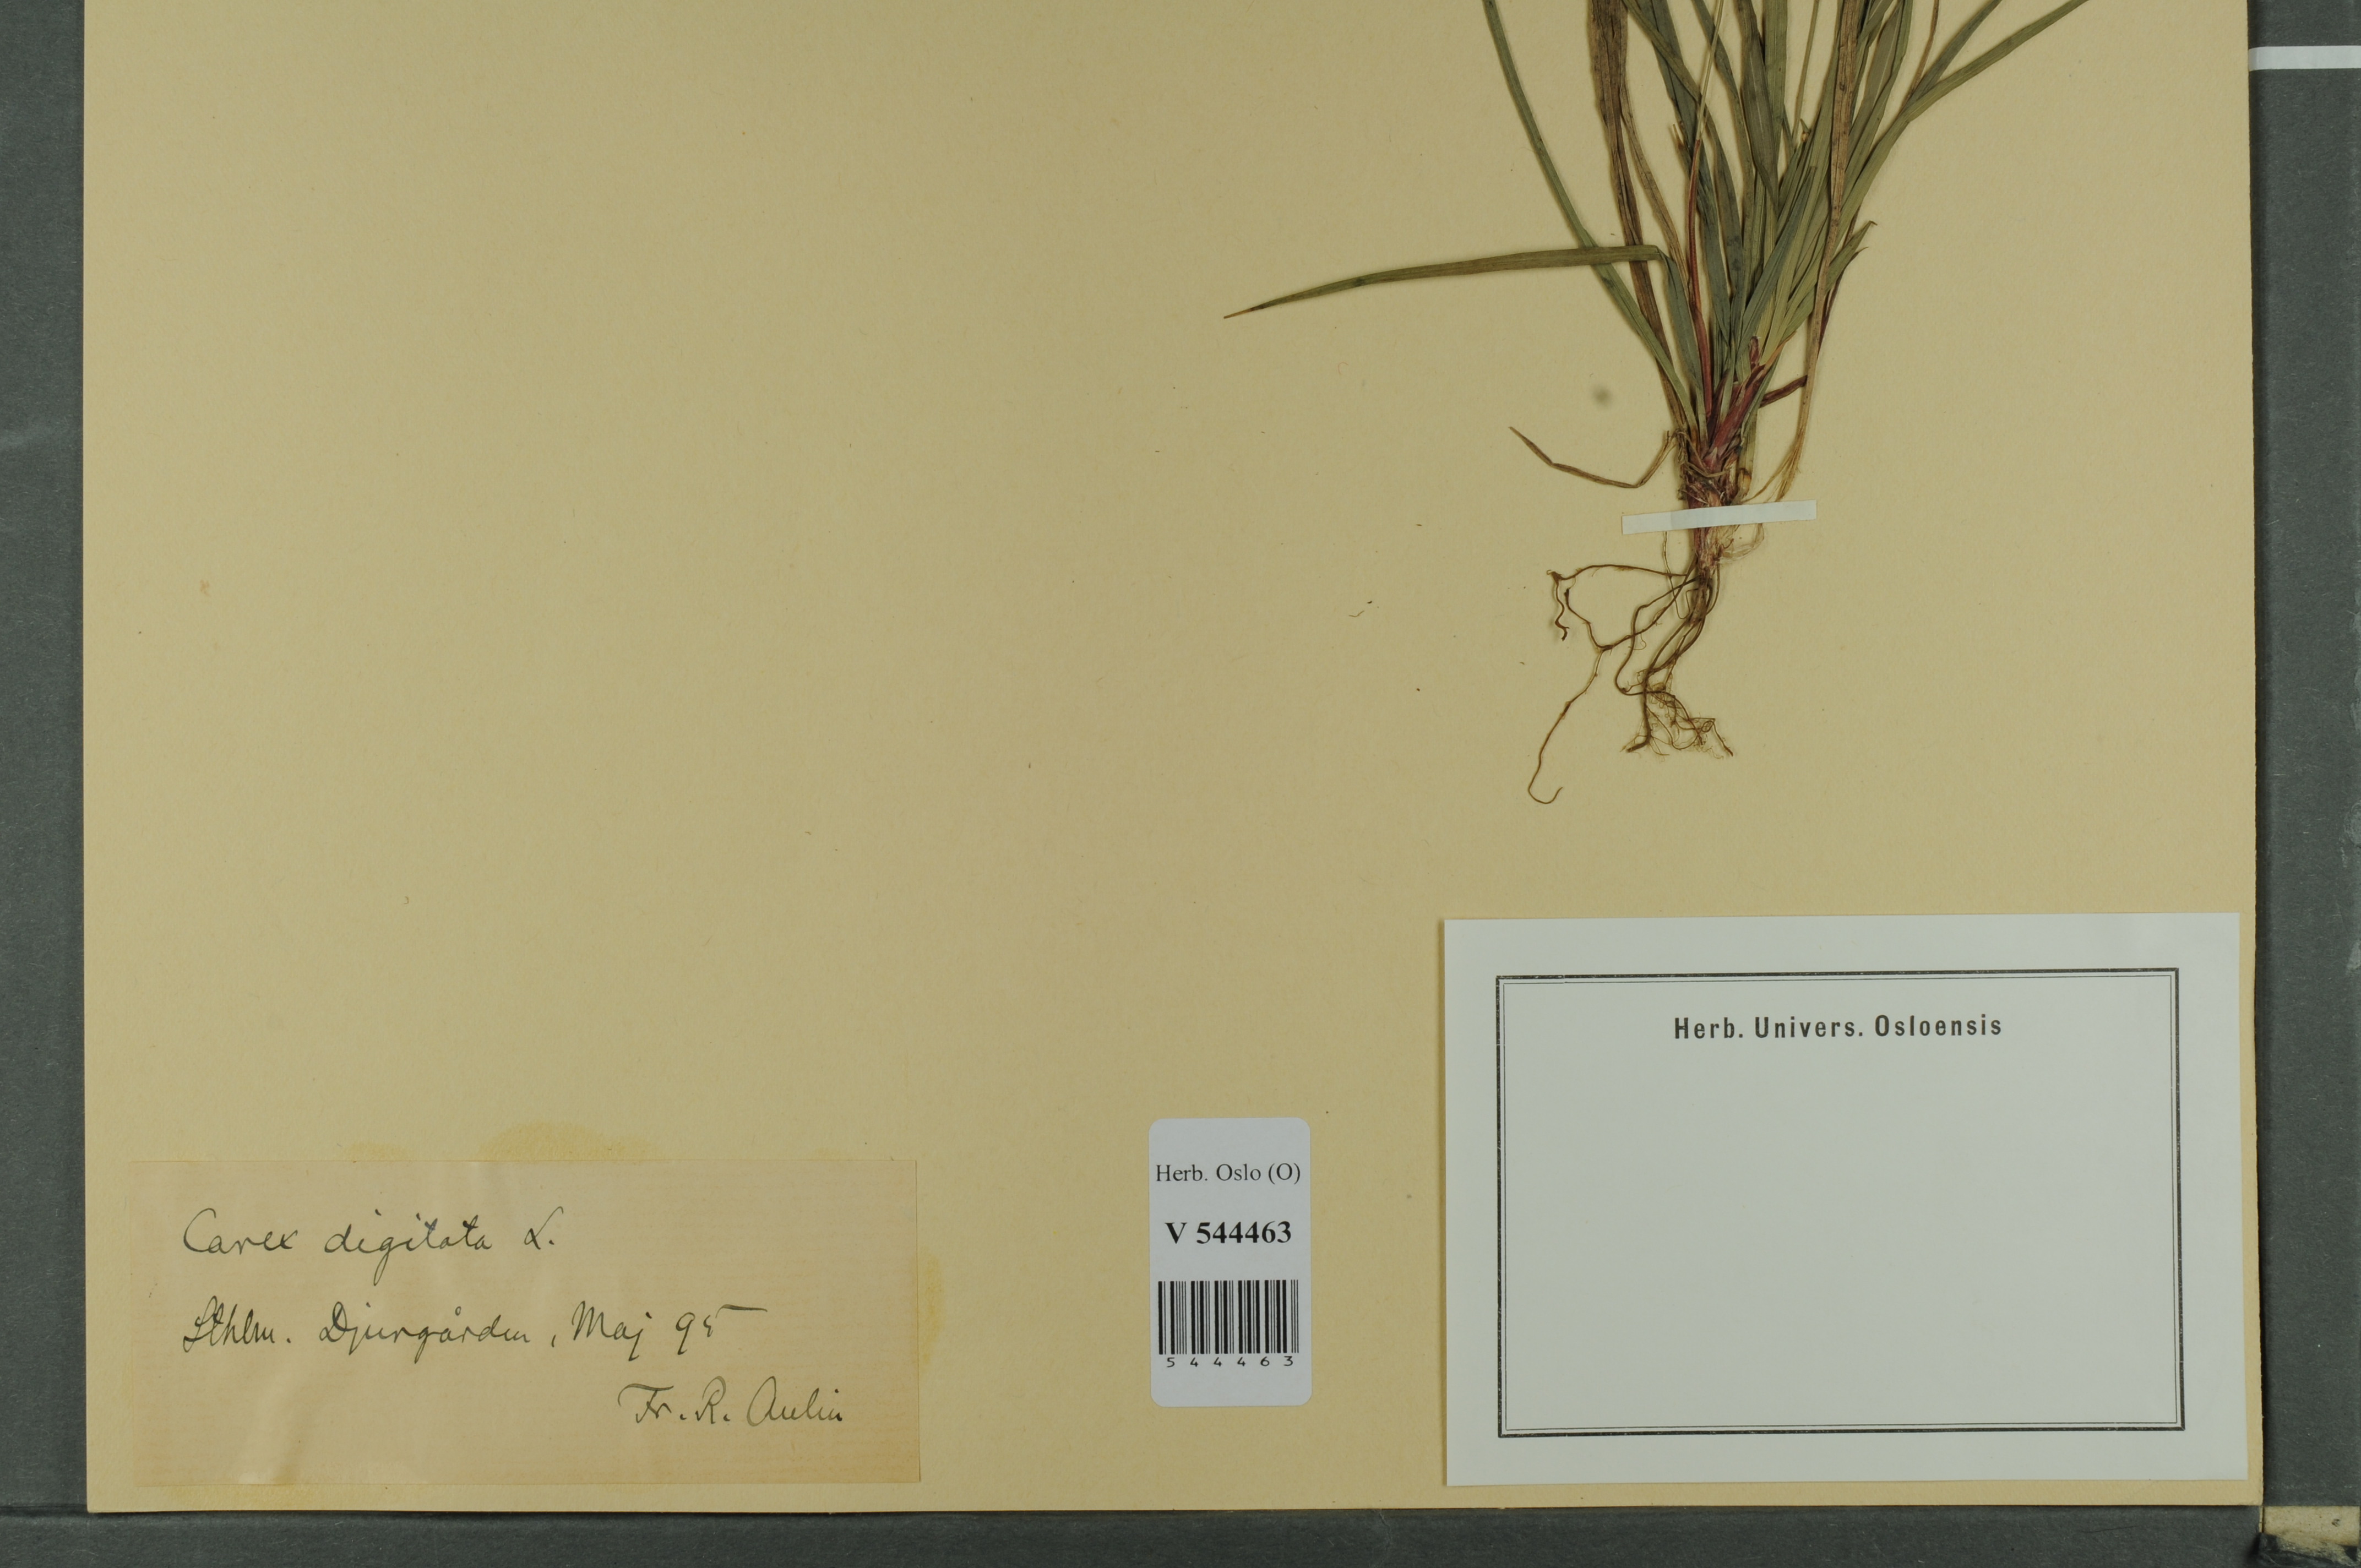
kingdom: Plantae
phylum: Tracheophyta
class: Liliopsida
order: Poales
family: Cyperaceae
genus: Carex
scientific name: Carex digitata
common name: Fingered sedge
